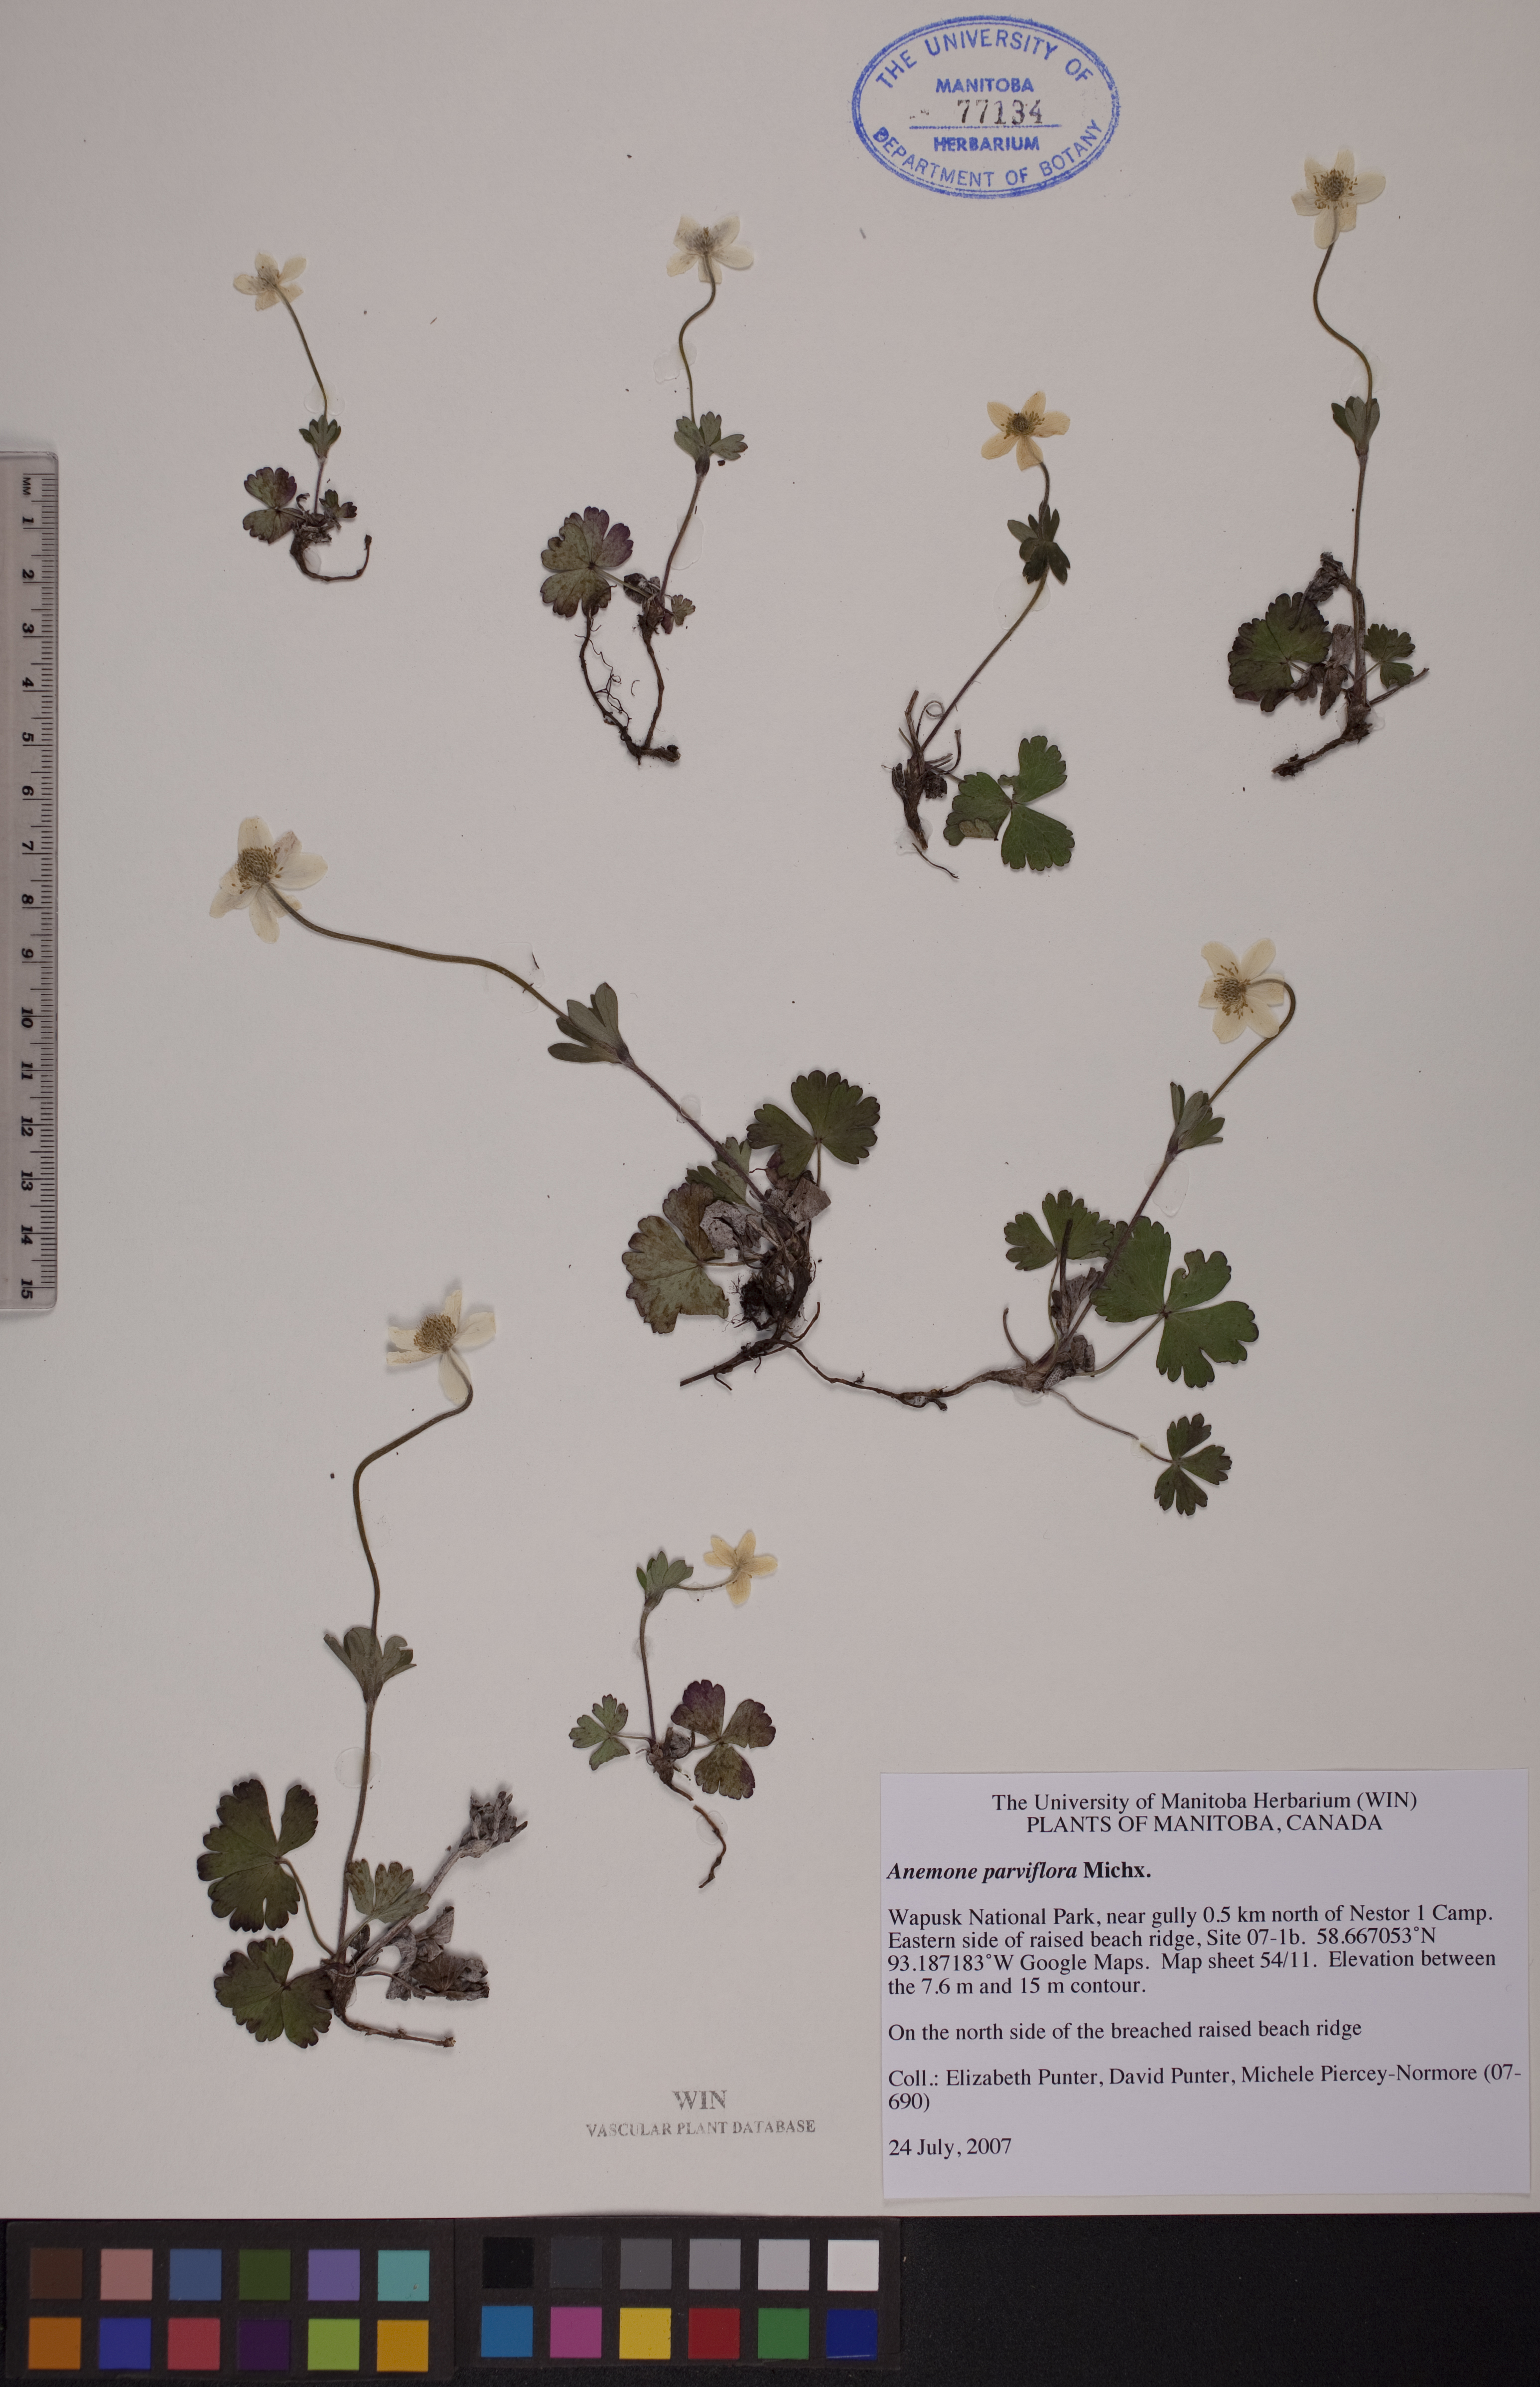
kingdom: Plantae
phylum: Tracheophyta
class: Magnoliopsida
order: Ranunculales
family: Ranunculaceae
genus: Anemone
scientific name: Anemone parviflora
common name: Northern anemone
